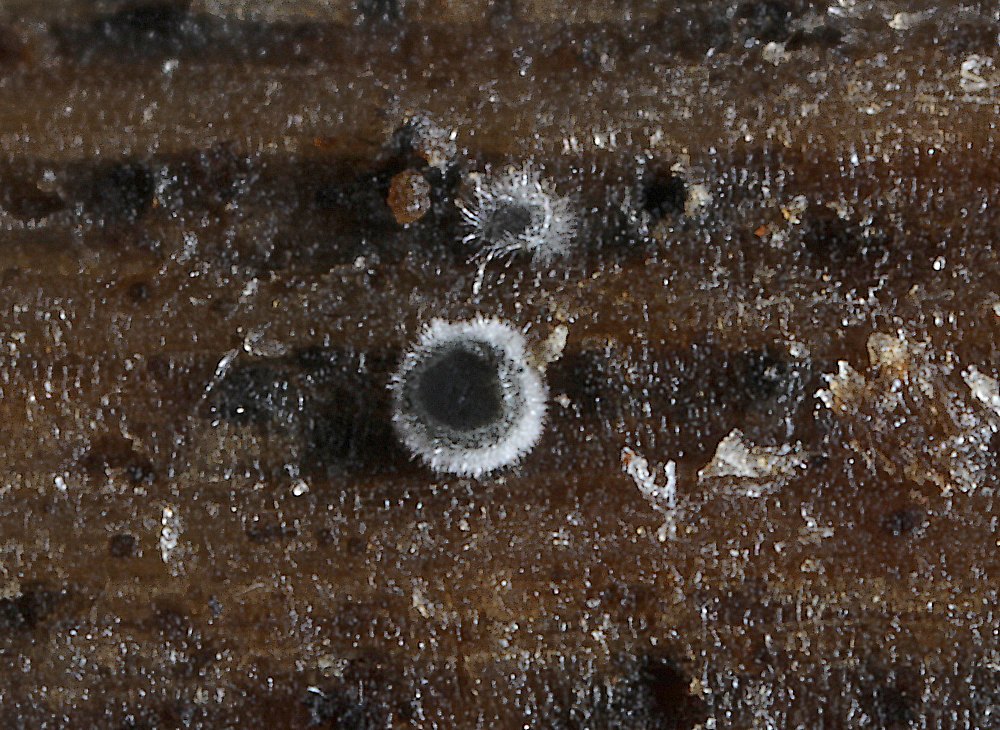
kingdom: Fungi
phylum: Ascomycota
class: Leotiomycetes
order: Helotiales
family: Mollisiaceae
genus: Mollisia
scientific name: Mollisia
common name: gråskive
